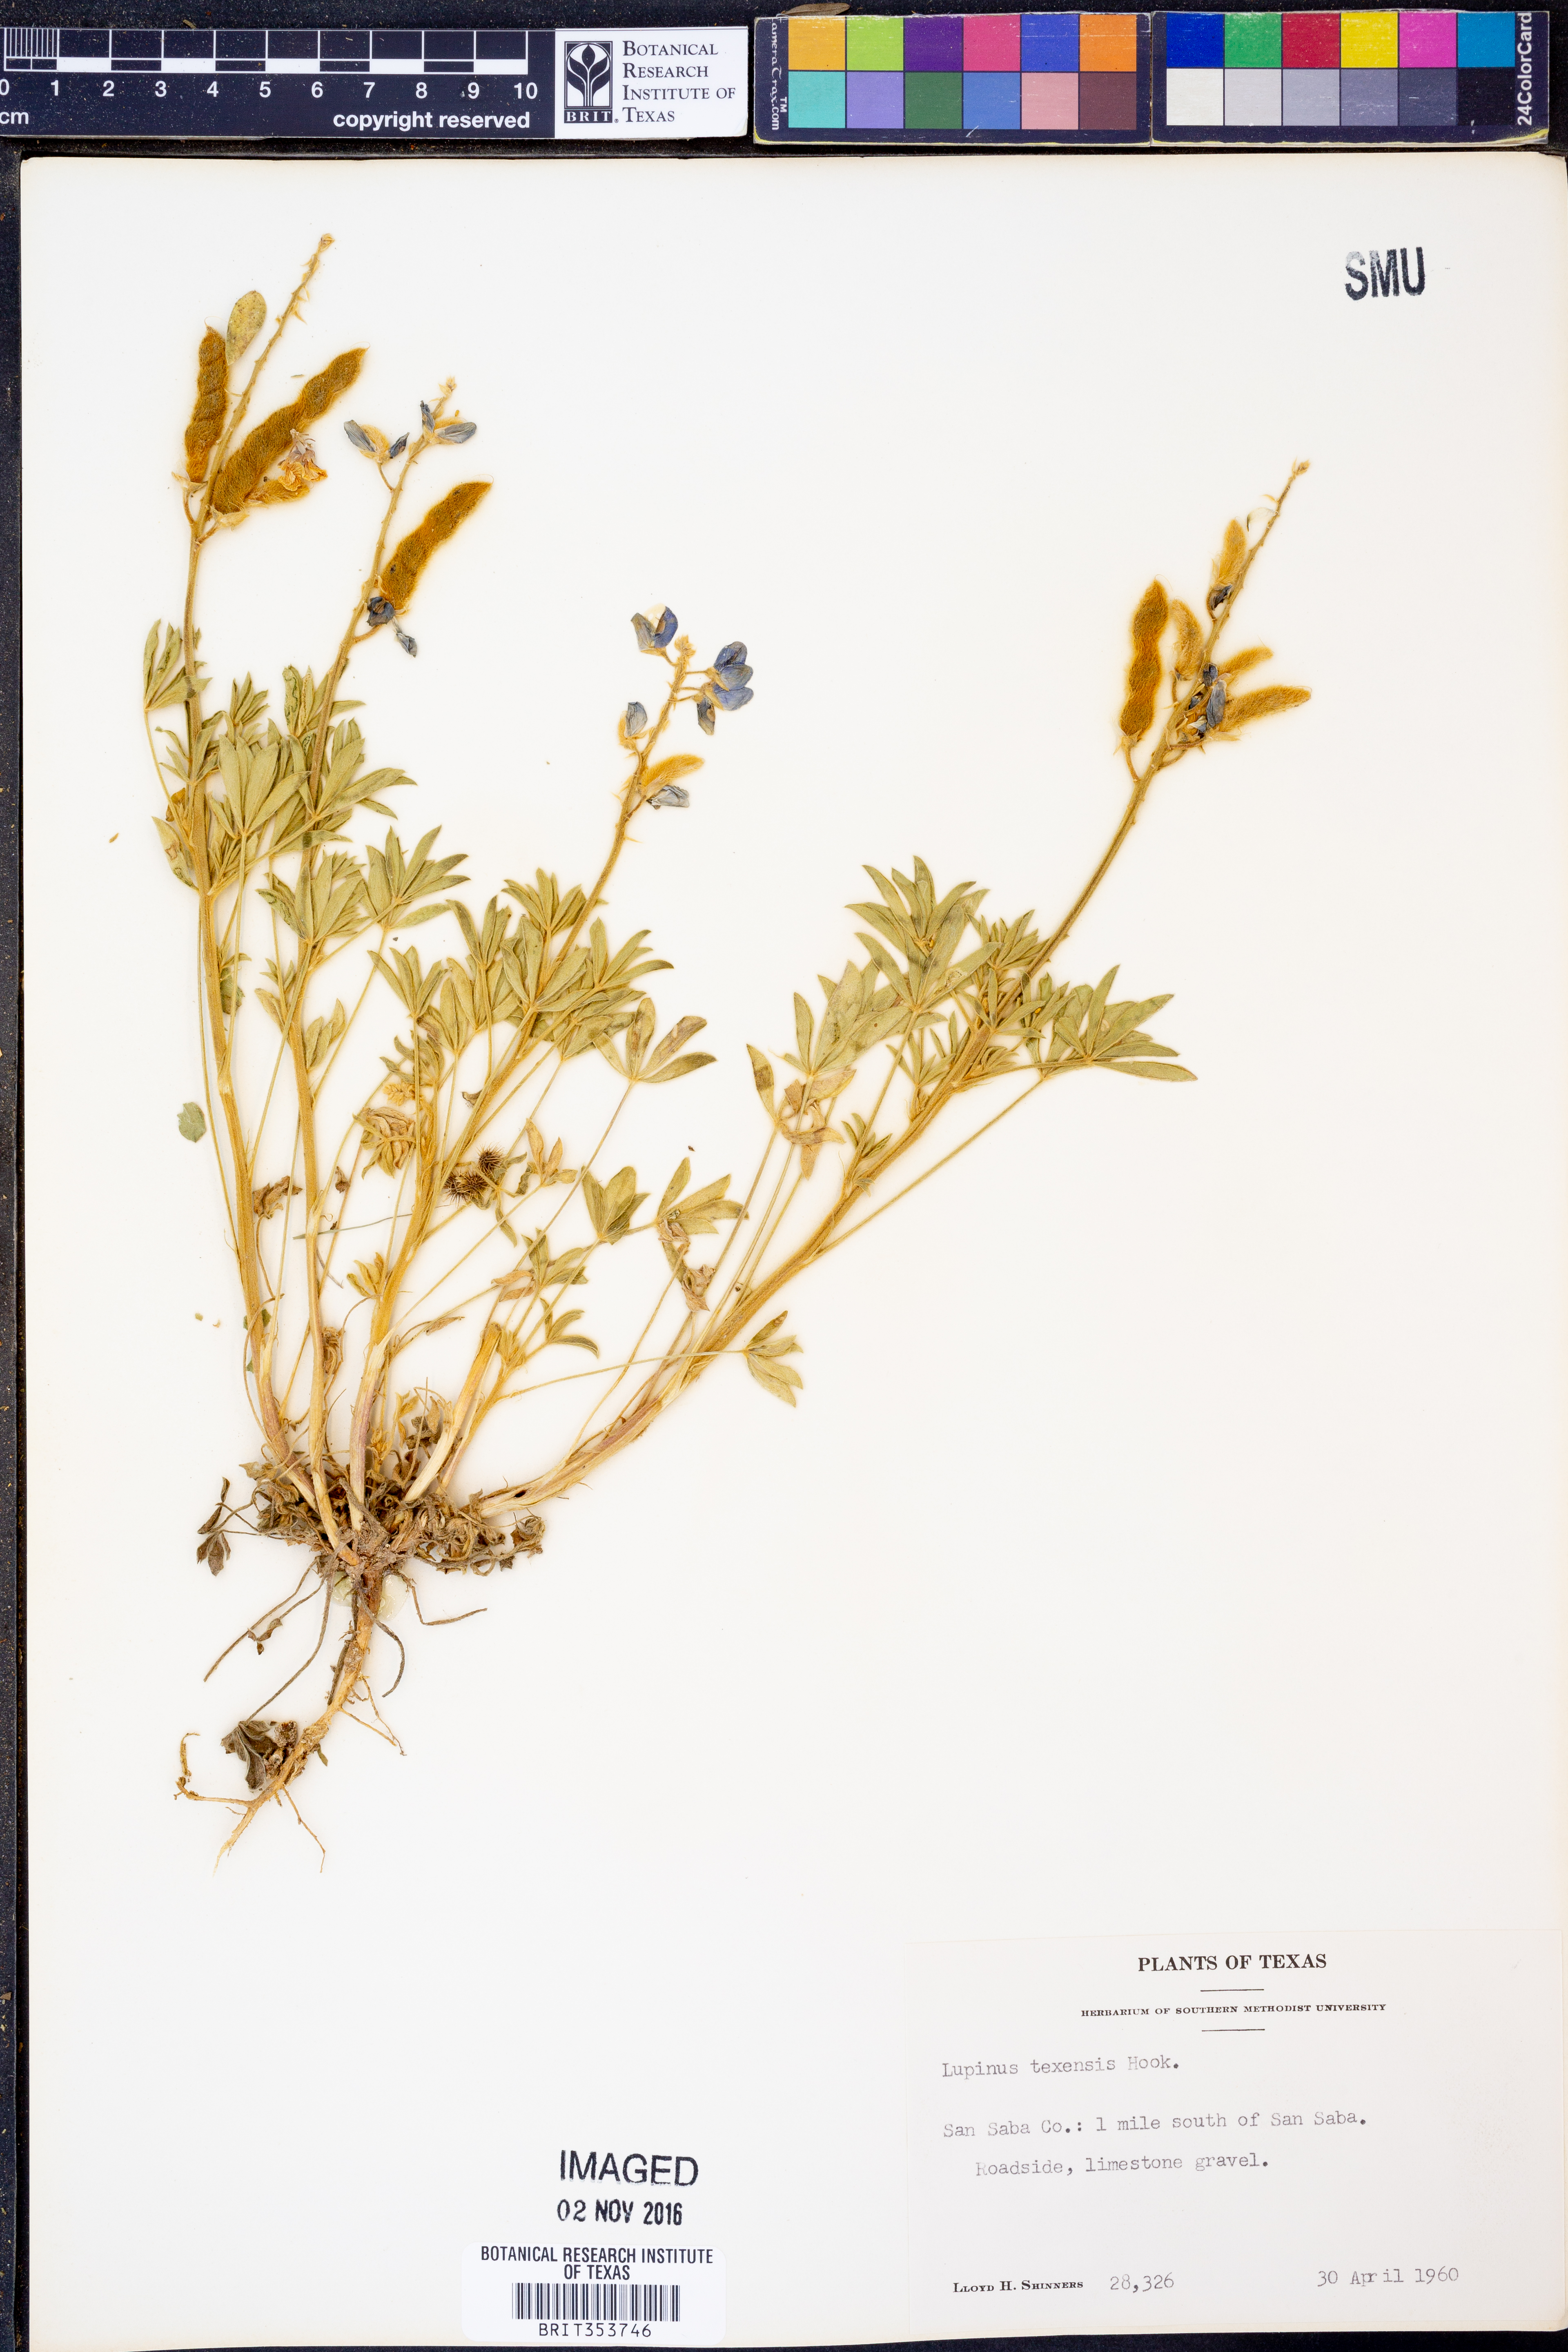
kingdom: Plantae
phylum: Tracheophyta
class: Magnoliopsida
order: Fabales
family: Fabaceae
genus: Lupinus
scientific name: Lupinus texensis
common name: Texas bluebonnet
